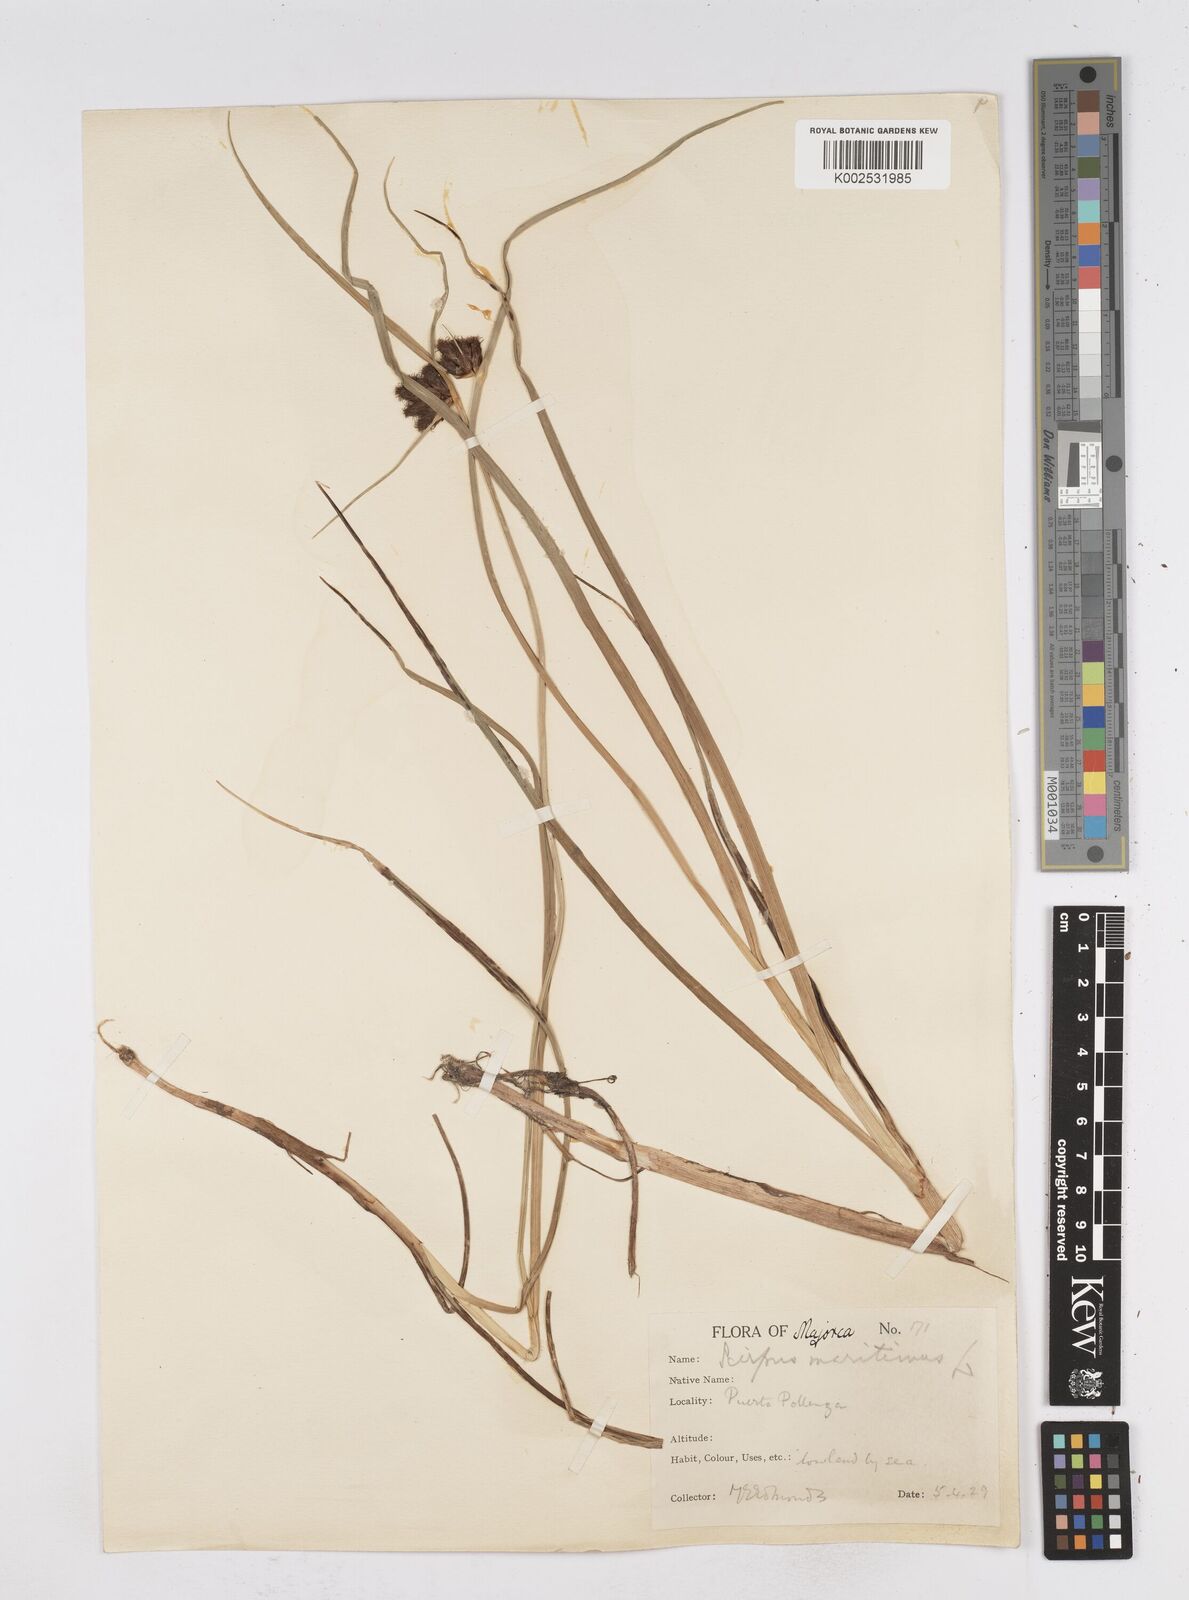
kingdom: Plantae
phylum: Tracheophyta
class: Liliopsida
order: Poales
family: Cyperaceae
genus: Bolboschoenus
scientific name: Bolboschoenus maritimus
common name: Sea club-rush
